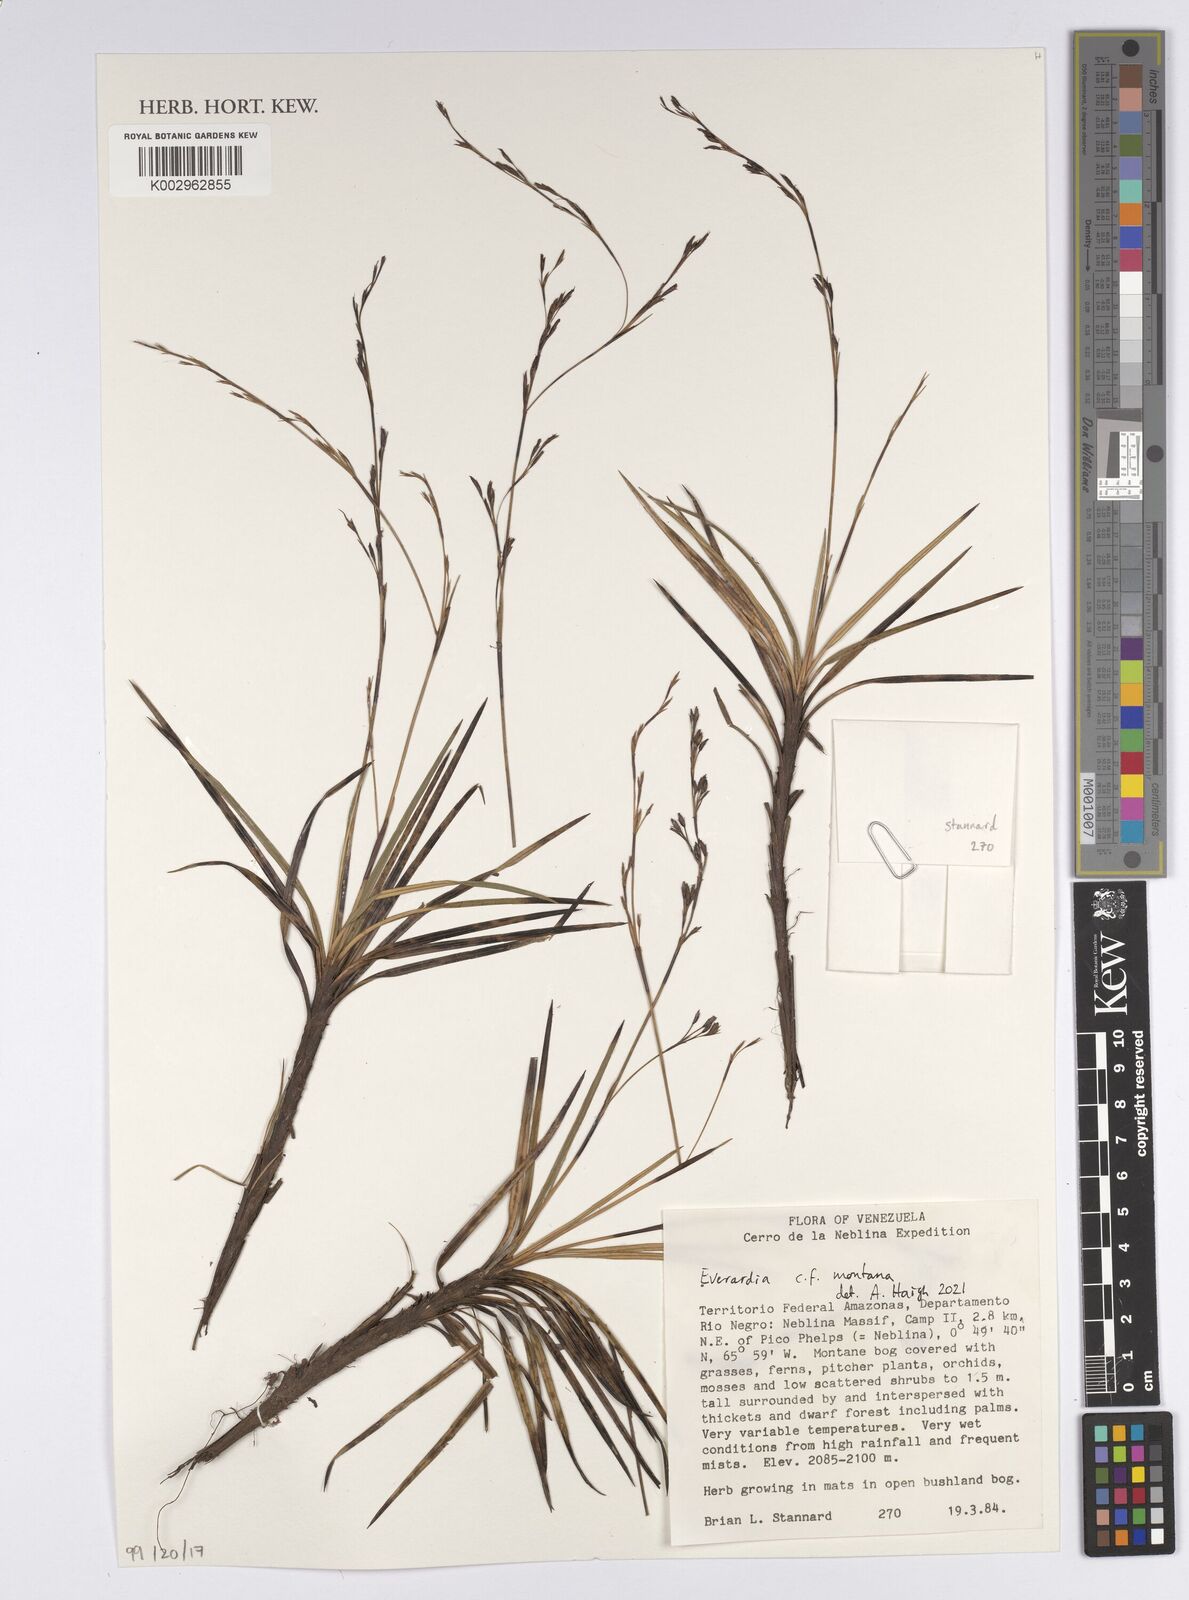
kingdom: Plantae
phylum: Tracheophyta
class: Liliopsida
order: Poales
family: Cyperaceae
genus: Cephalocarpus
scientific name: Cephalocarpus montanus
